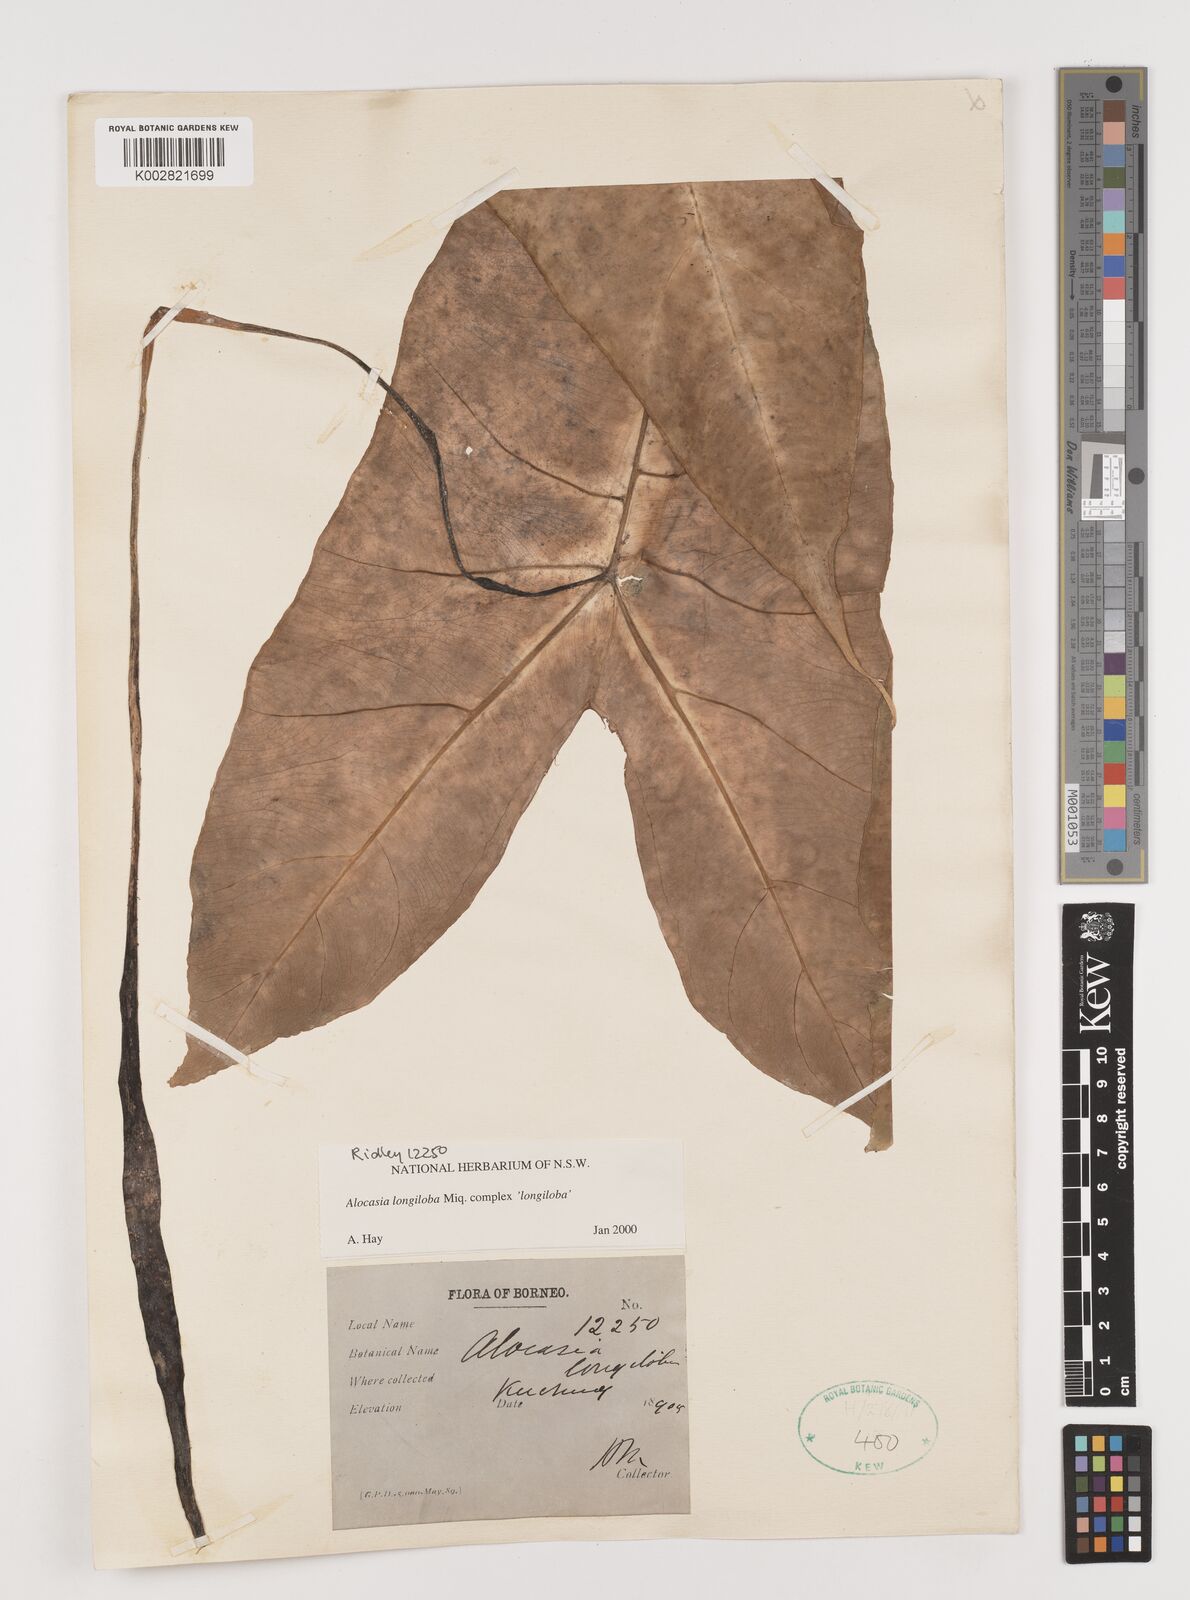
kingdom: Plantae
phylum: Tracheophyta
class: Liliopsida
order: Alismatales
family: Araceae
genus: Alocasia
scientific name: Alocasia longiloba
